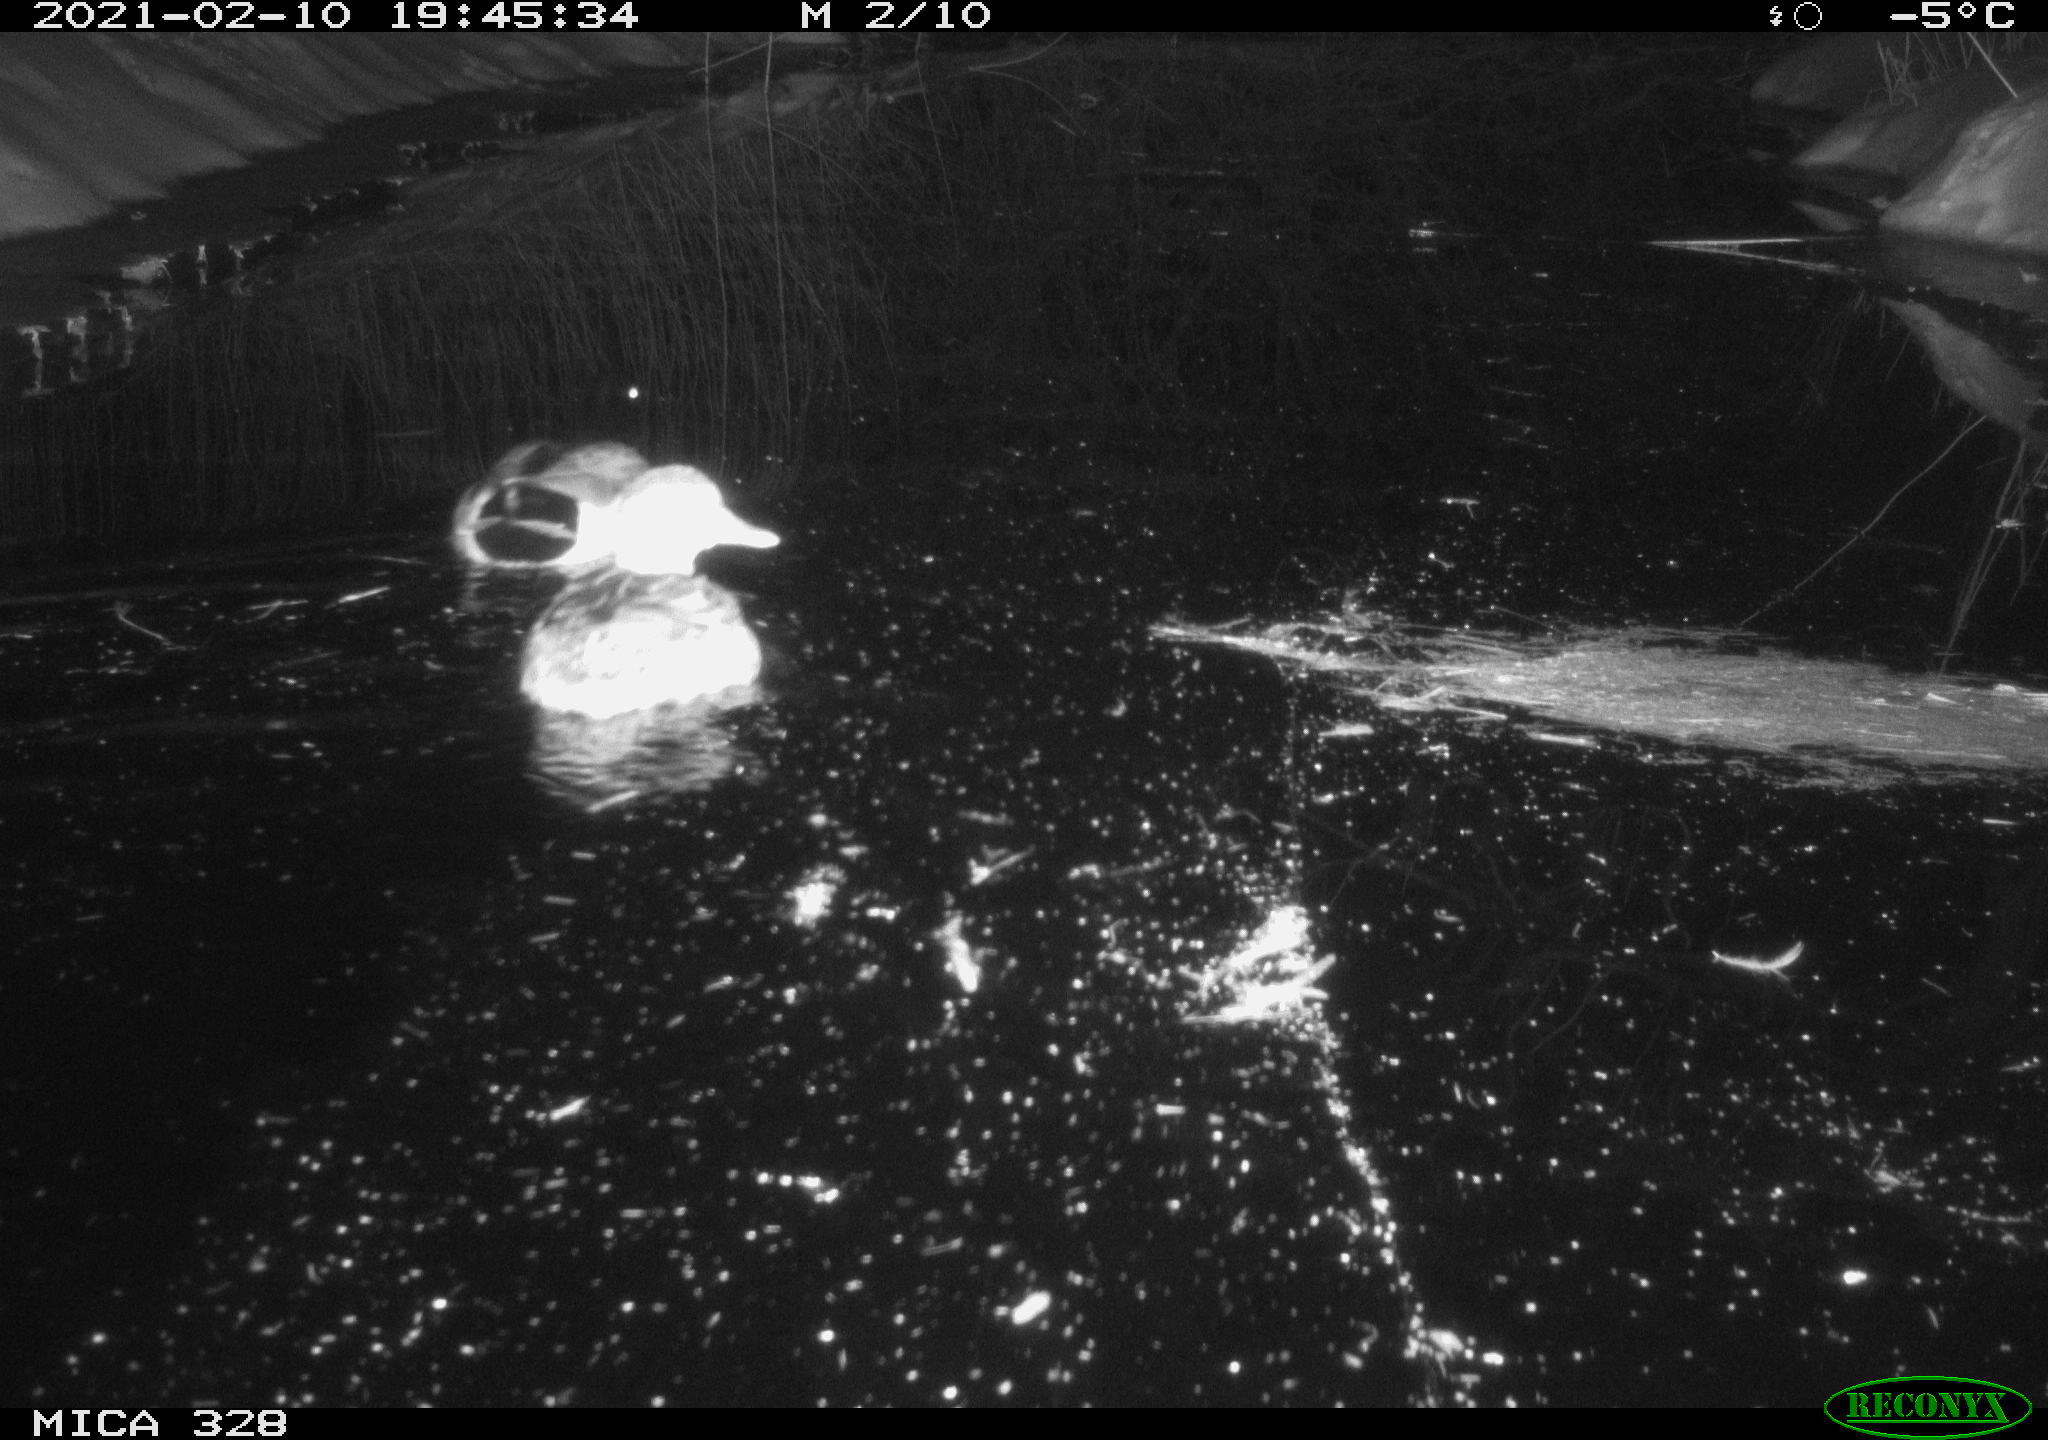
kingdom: Animalia
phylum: Chordata
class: Aves
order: Anseriformes
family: Anatidae
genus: Anas
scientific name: Anas platyrhynchos
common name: Mallard
